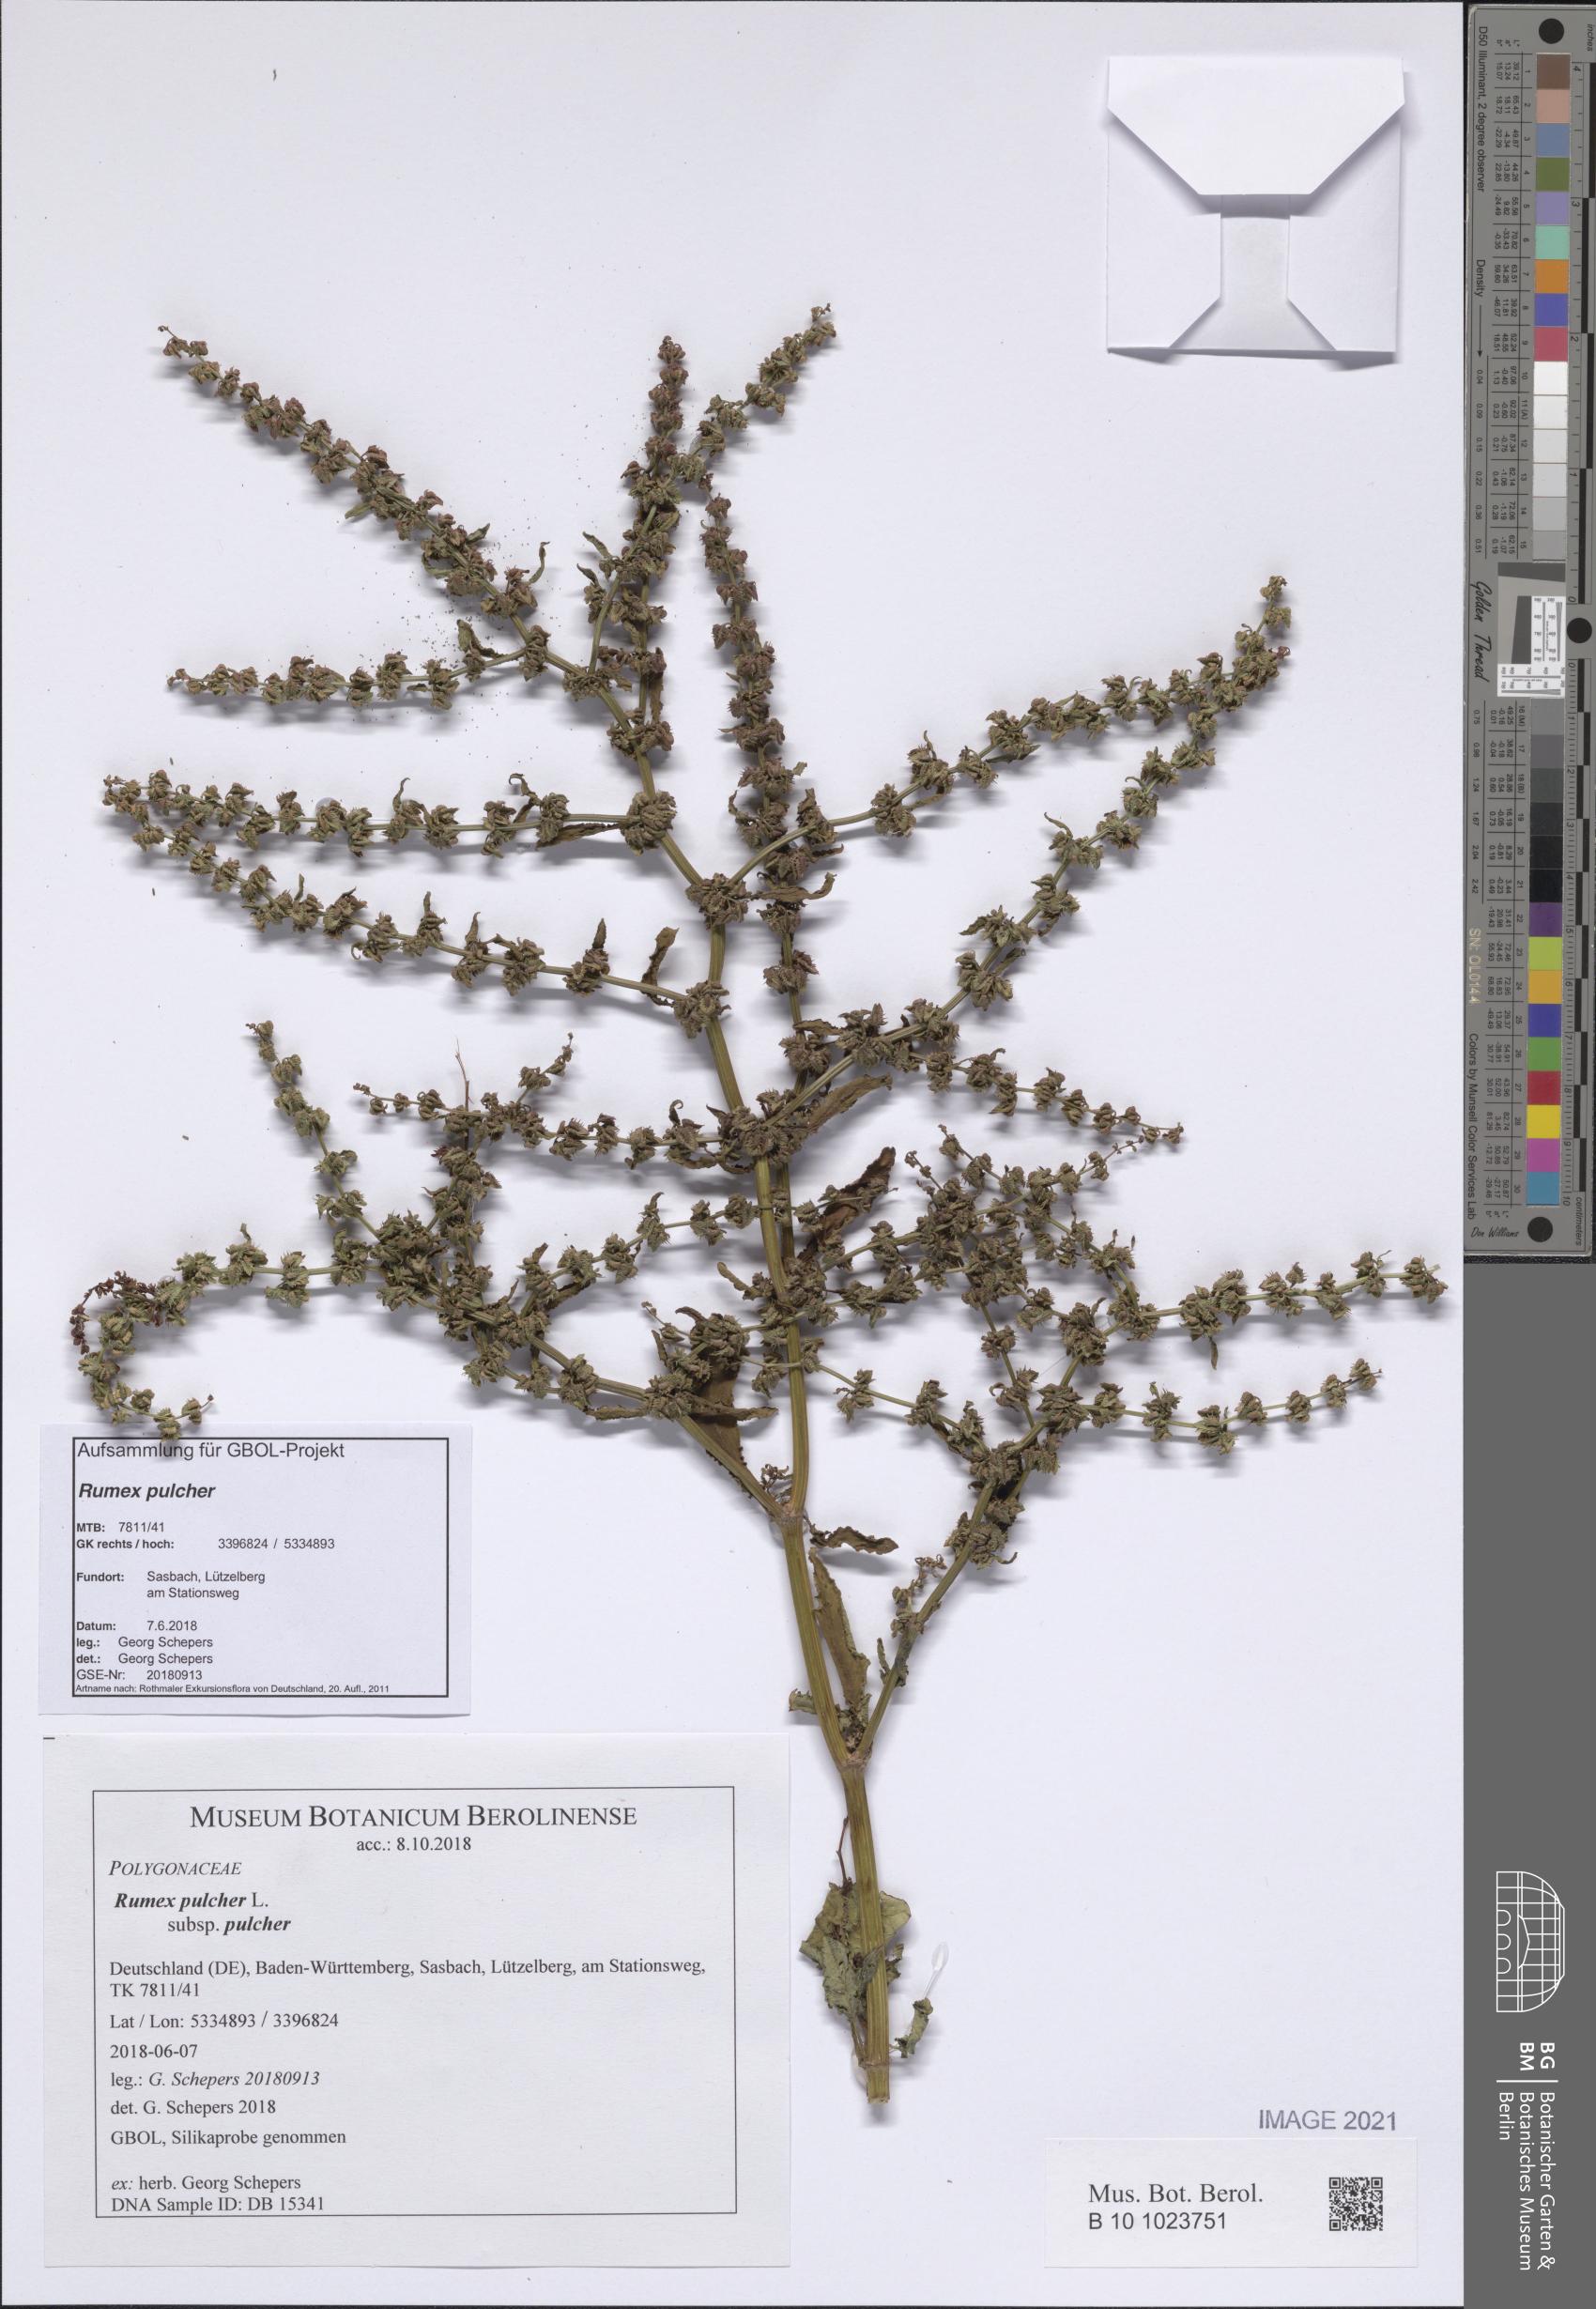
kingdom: Plantae
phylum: Tracheophyta
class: Magnoliopsida
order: Caryophyllales
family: Polygonaceae
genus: Rumex
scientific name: Rumex pulcher
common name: Fiddle dock
